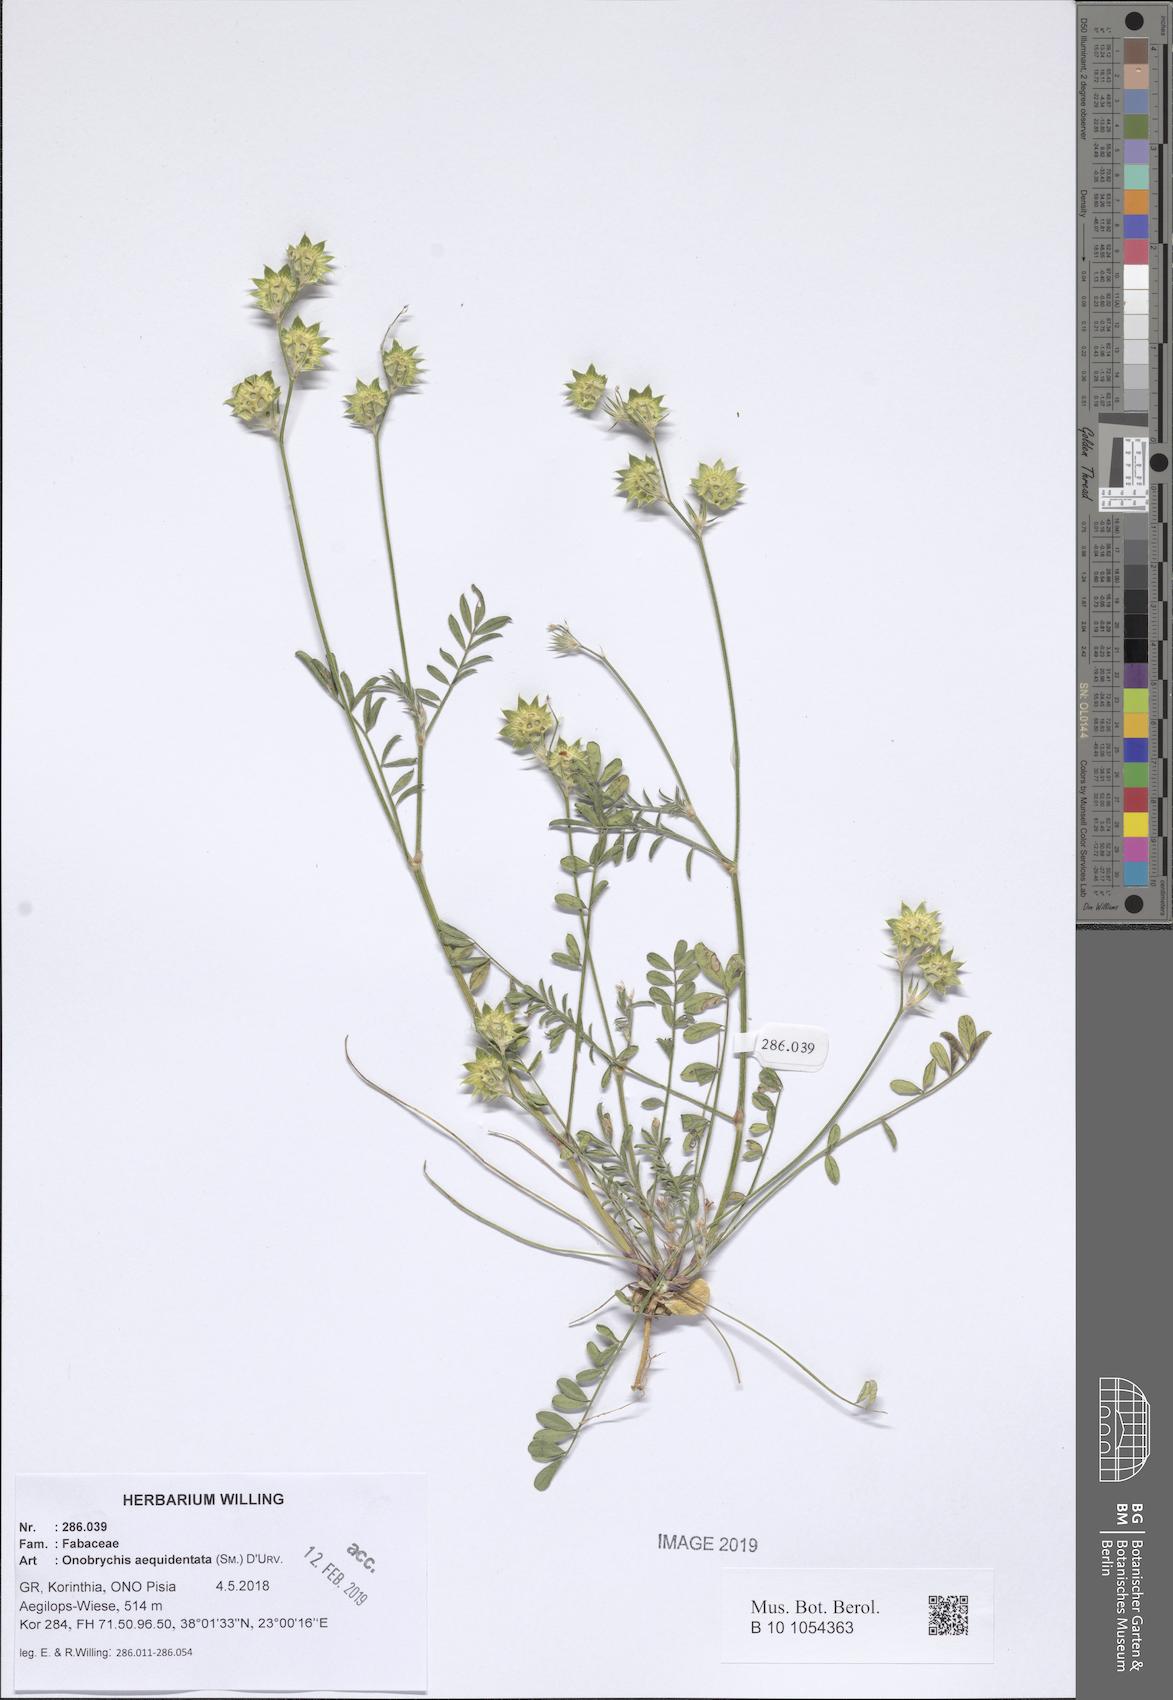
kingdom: Plantae
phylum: Tracheophyta
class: Magnoliopsida
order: Fabales
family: Fabaceae
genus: Onobrychis
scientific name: Onobrychis aequidentata
